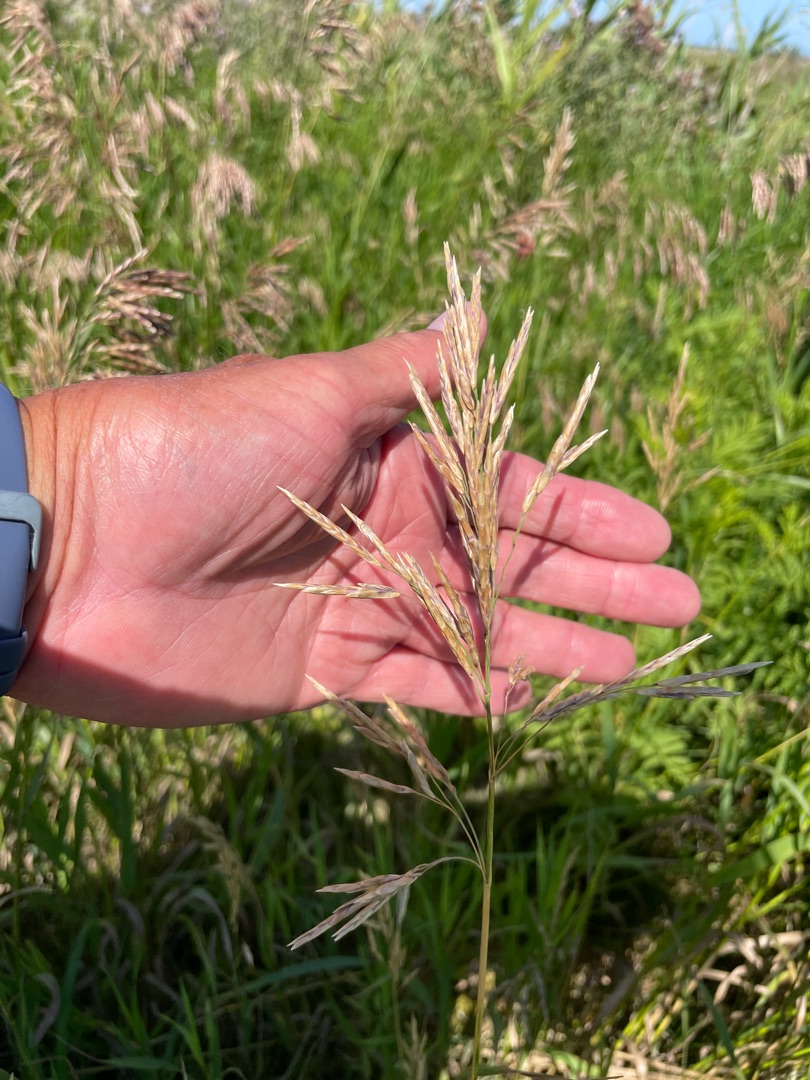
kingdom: Plantae
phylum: Tracheophyta
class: Liliopsida
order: Poales
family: Poaceae
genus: Bromus
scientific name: Bromus inermis
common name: Stakløs hejre
